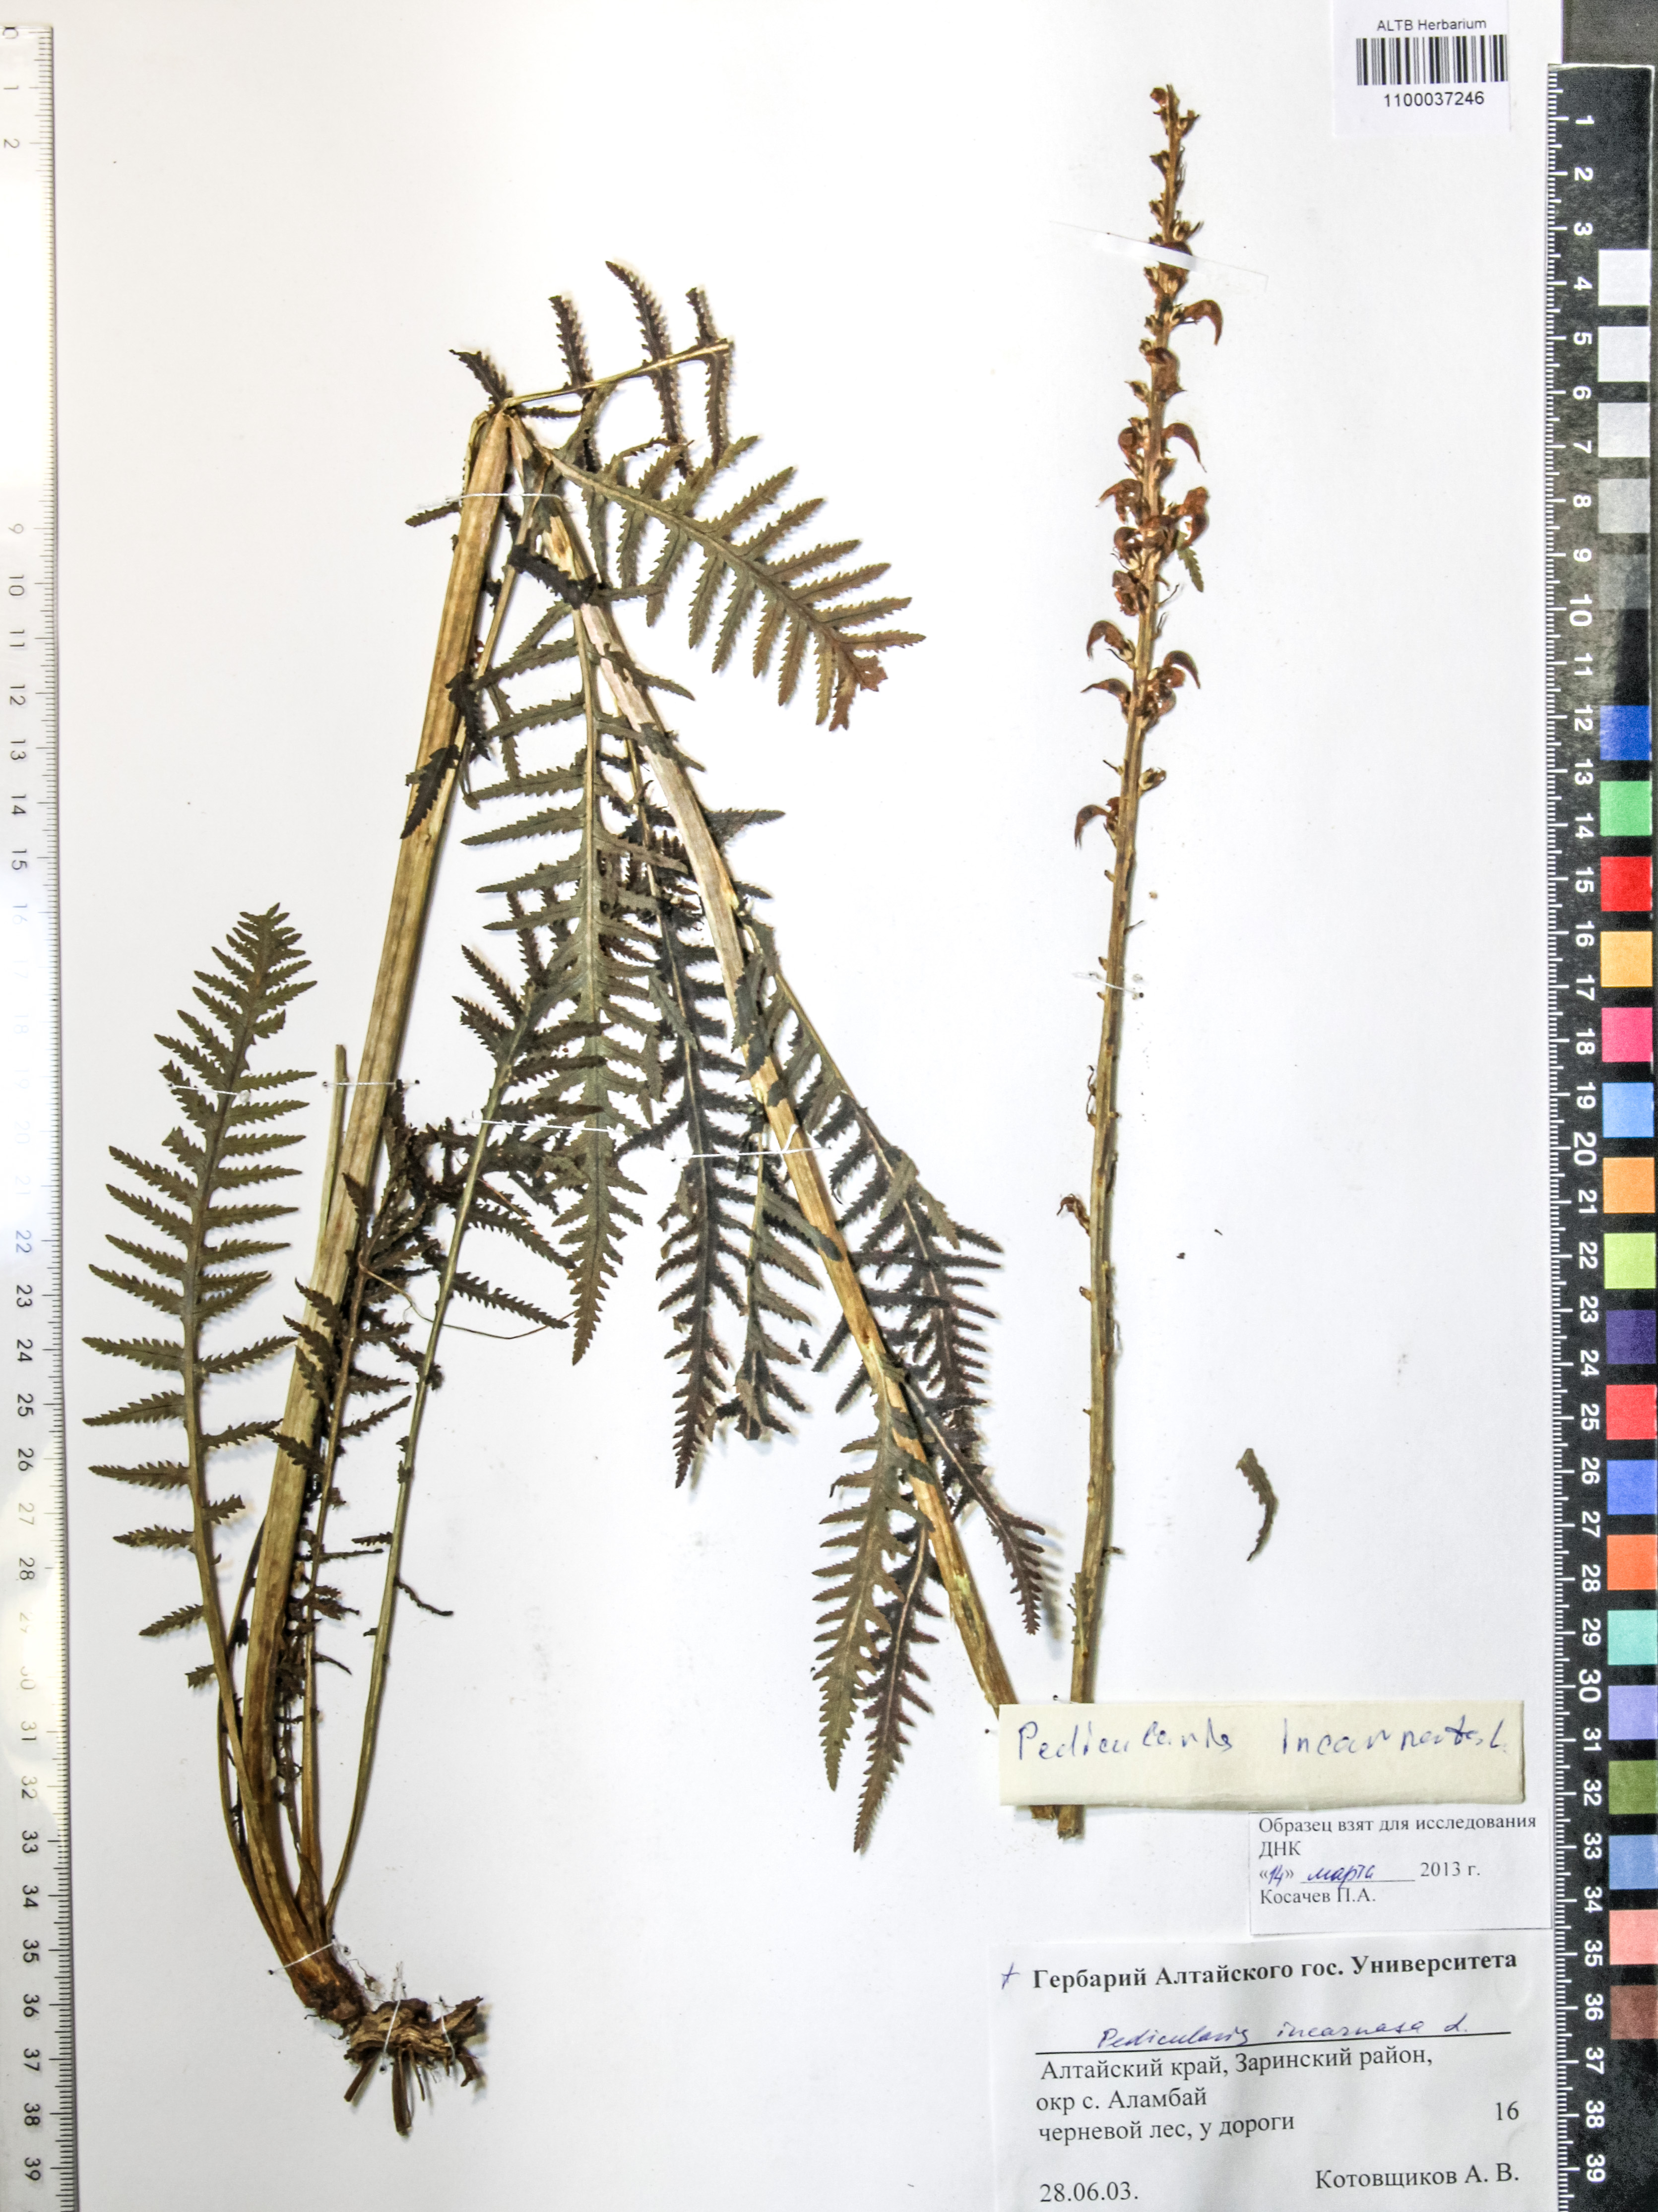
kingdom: Plantae
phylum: Tracheophyta
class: Magnoliopsida
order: Lamiales
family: Orobanchaceae
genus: Pedicularis
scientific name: Pedicularis incarnata
